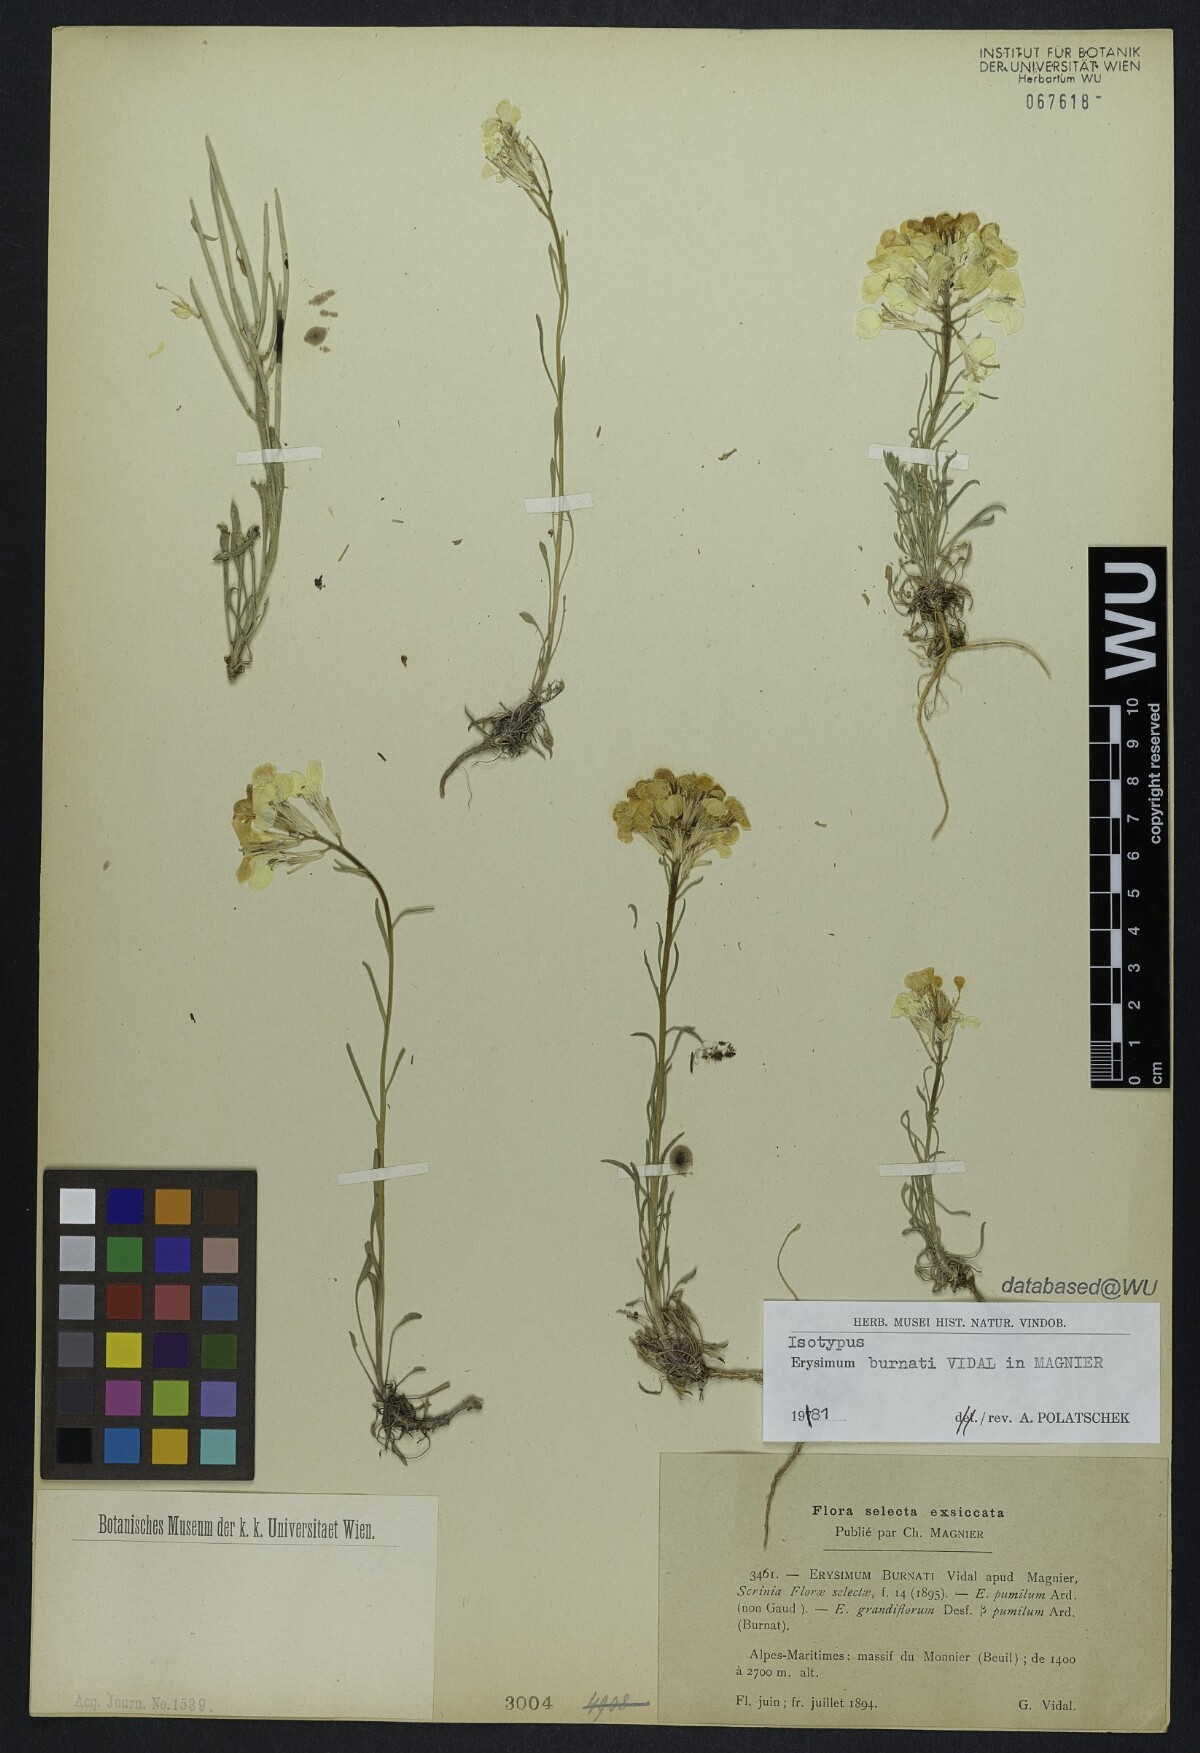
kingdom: Plantae
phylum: Tracheophyta
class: Magnoliopsida
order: Brassicales
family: Brassicaceae
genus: Erysimum
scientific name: Erysimum burnatii
